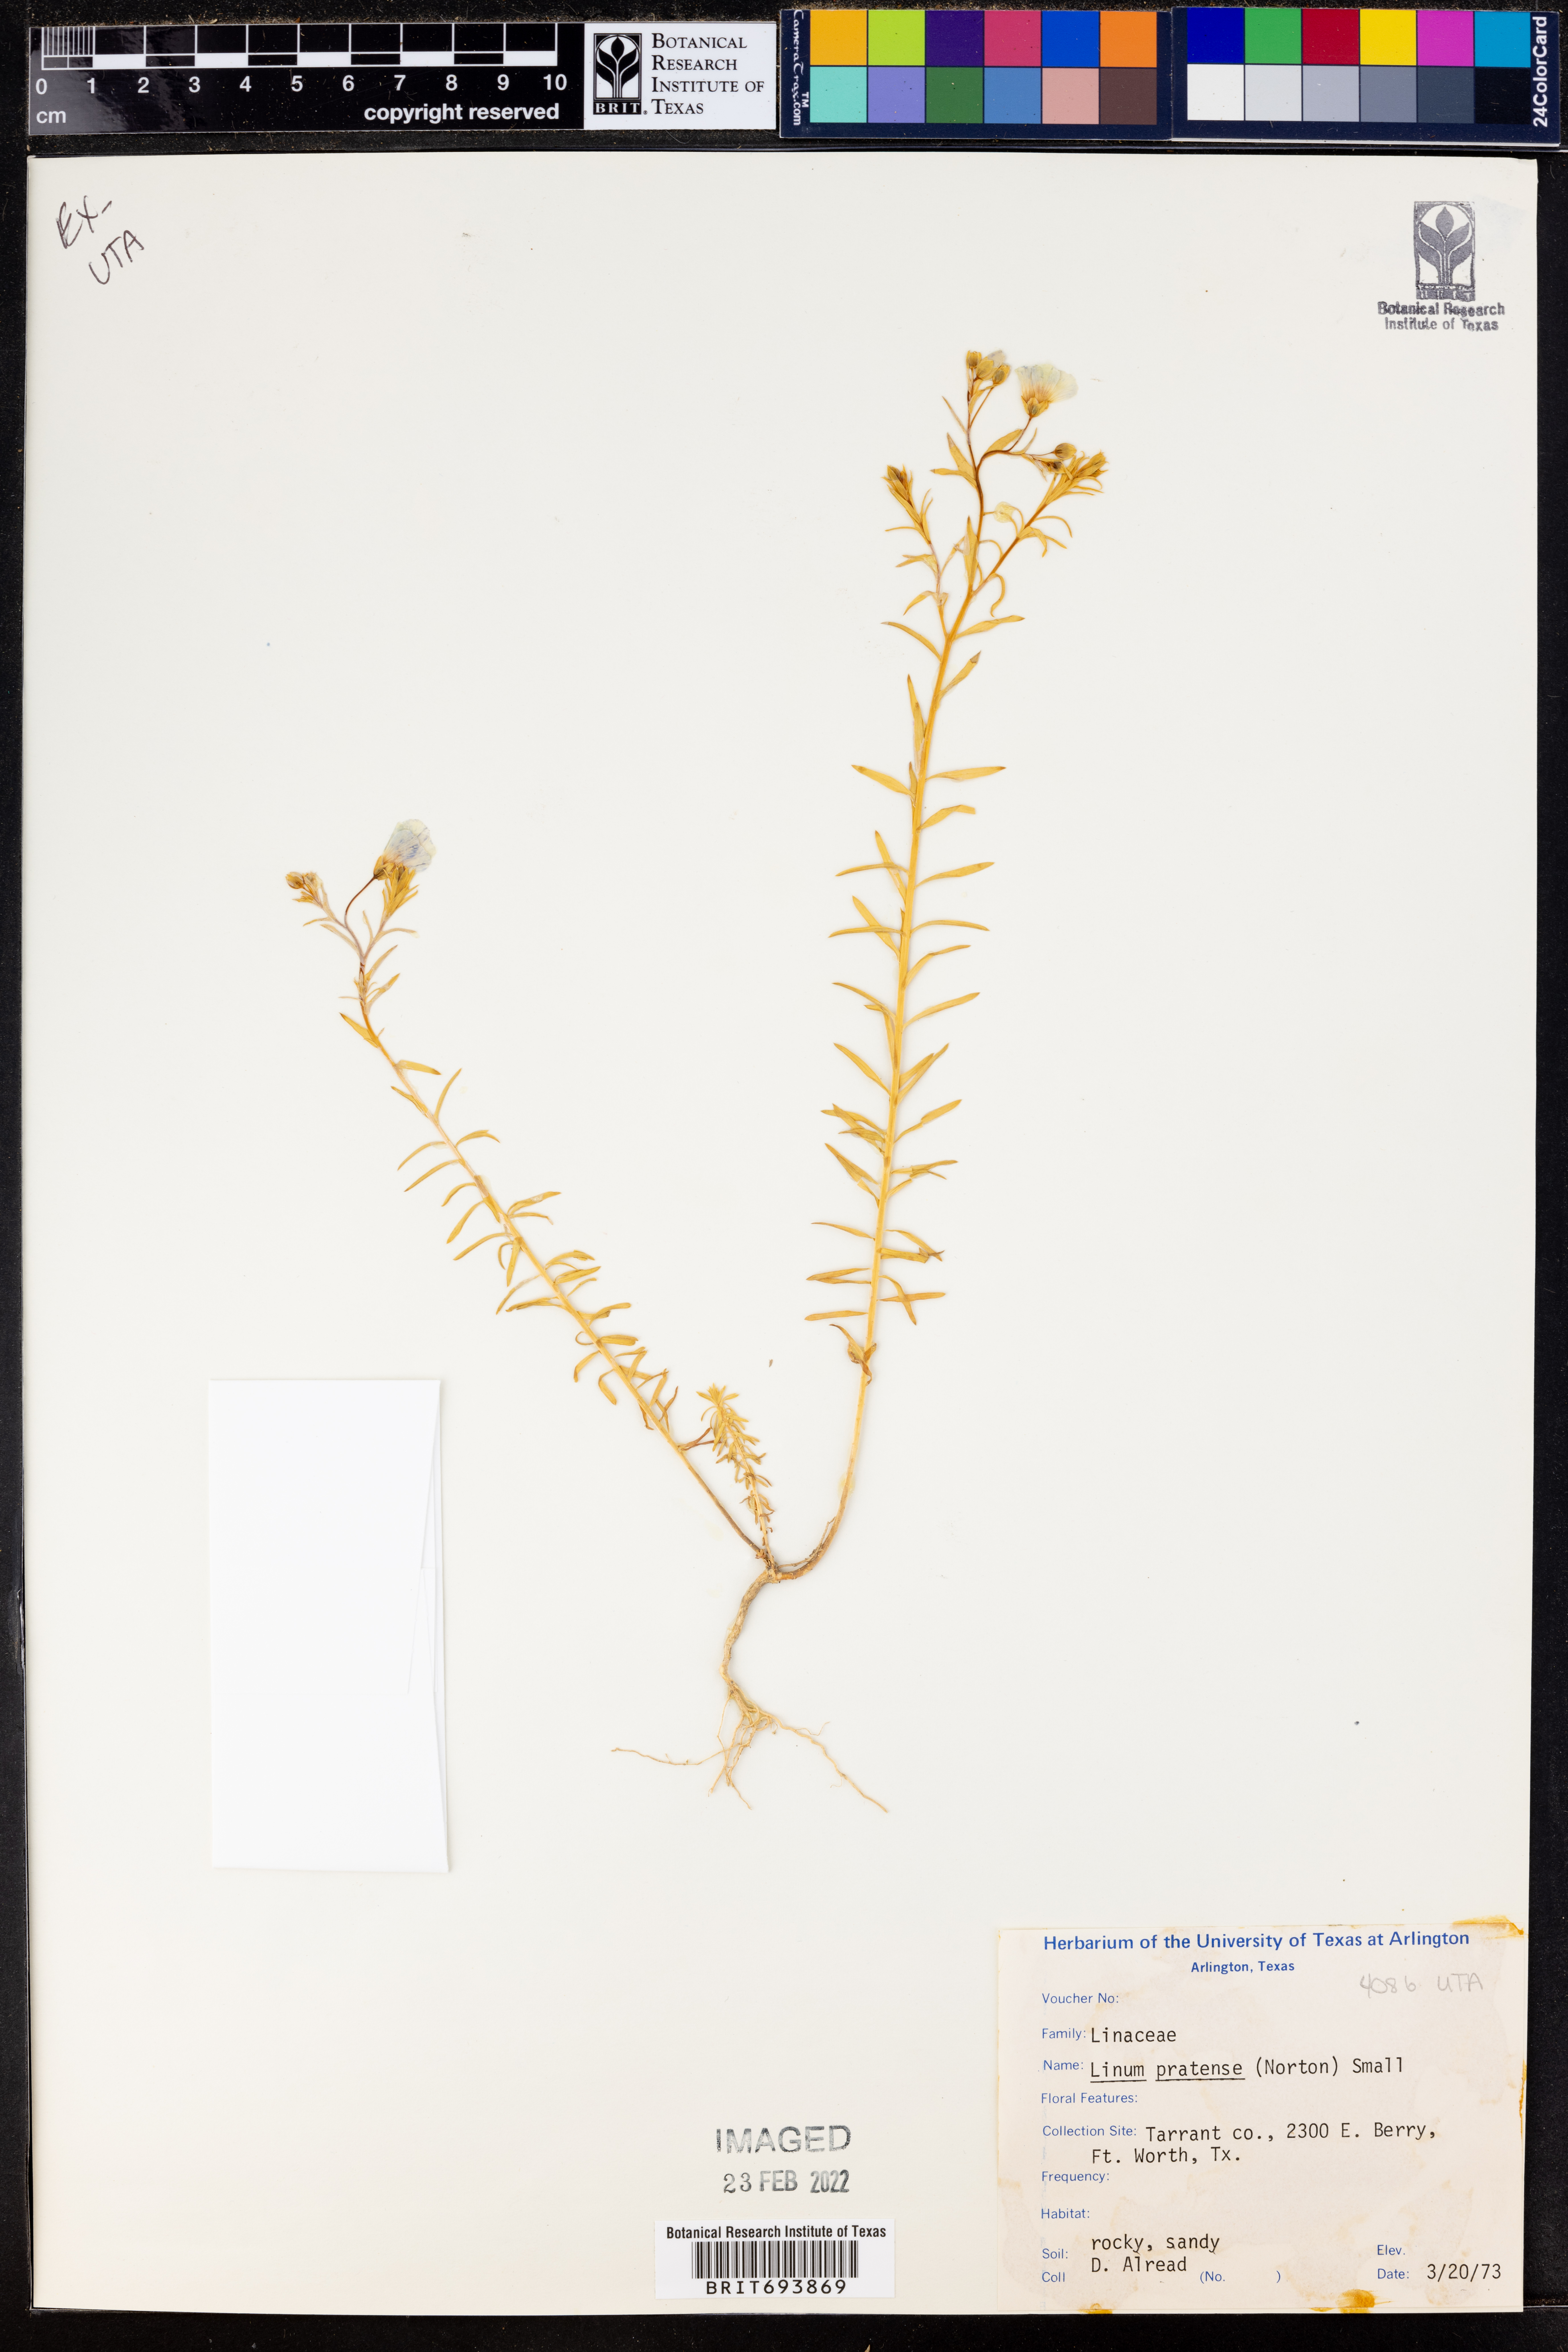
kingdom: Plantae
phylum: Tracheophyta
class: Magnoliopsida
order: Malpighiales
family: Linaceae
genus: Linum
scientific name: Linum pratense
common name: Norton's flax
